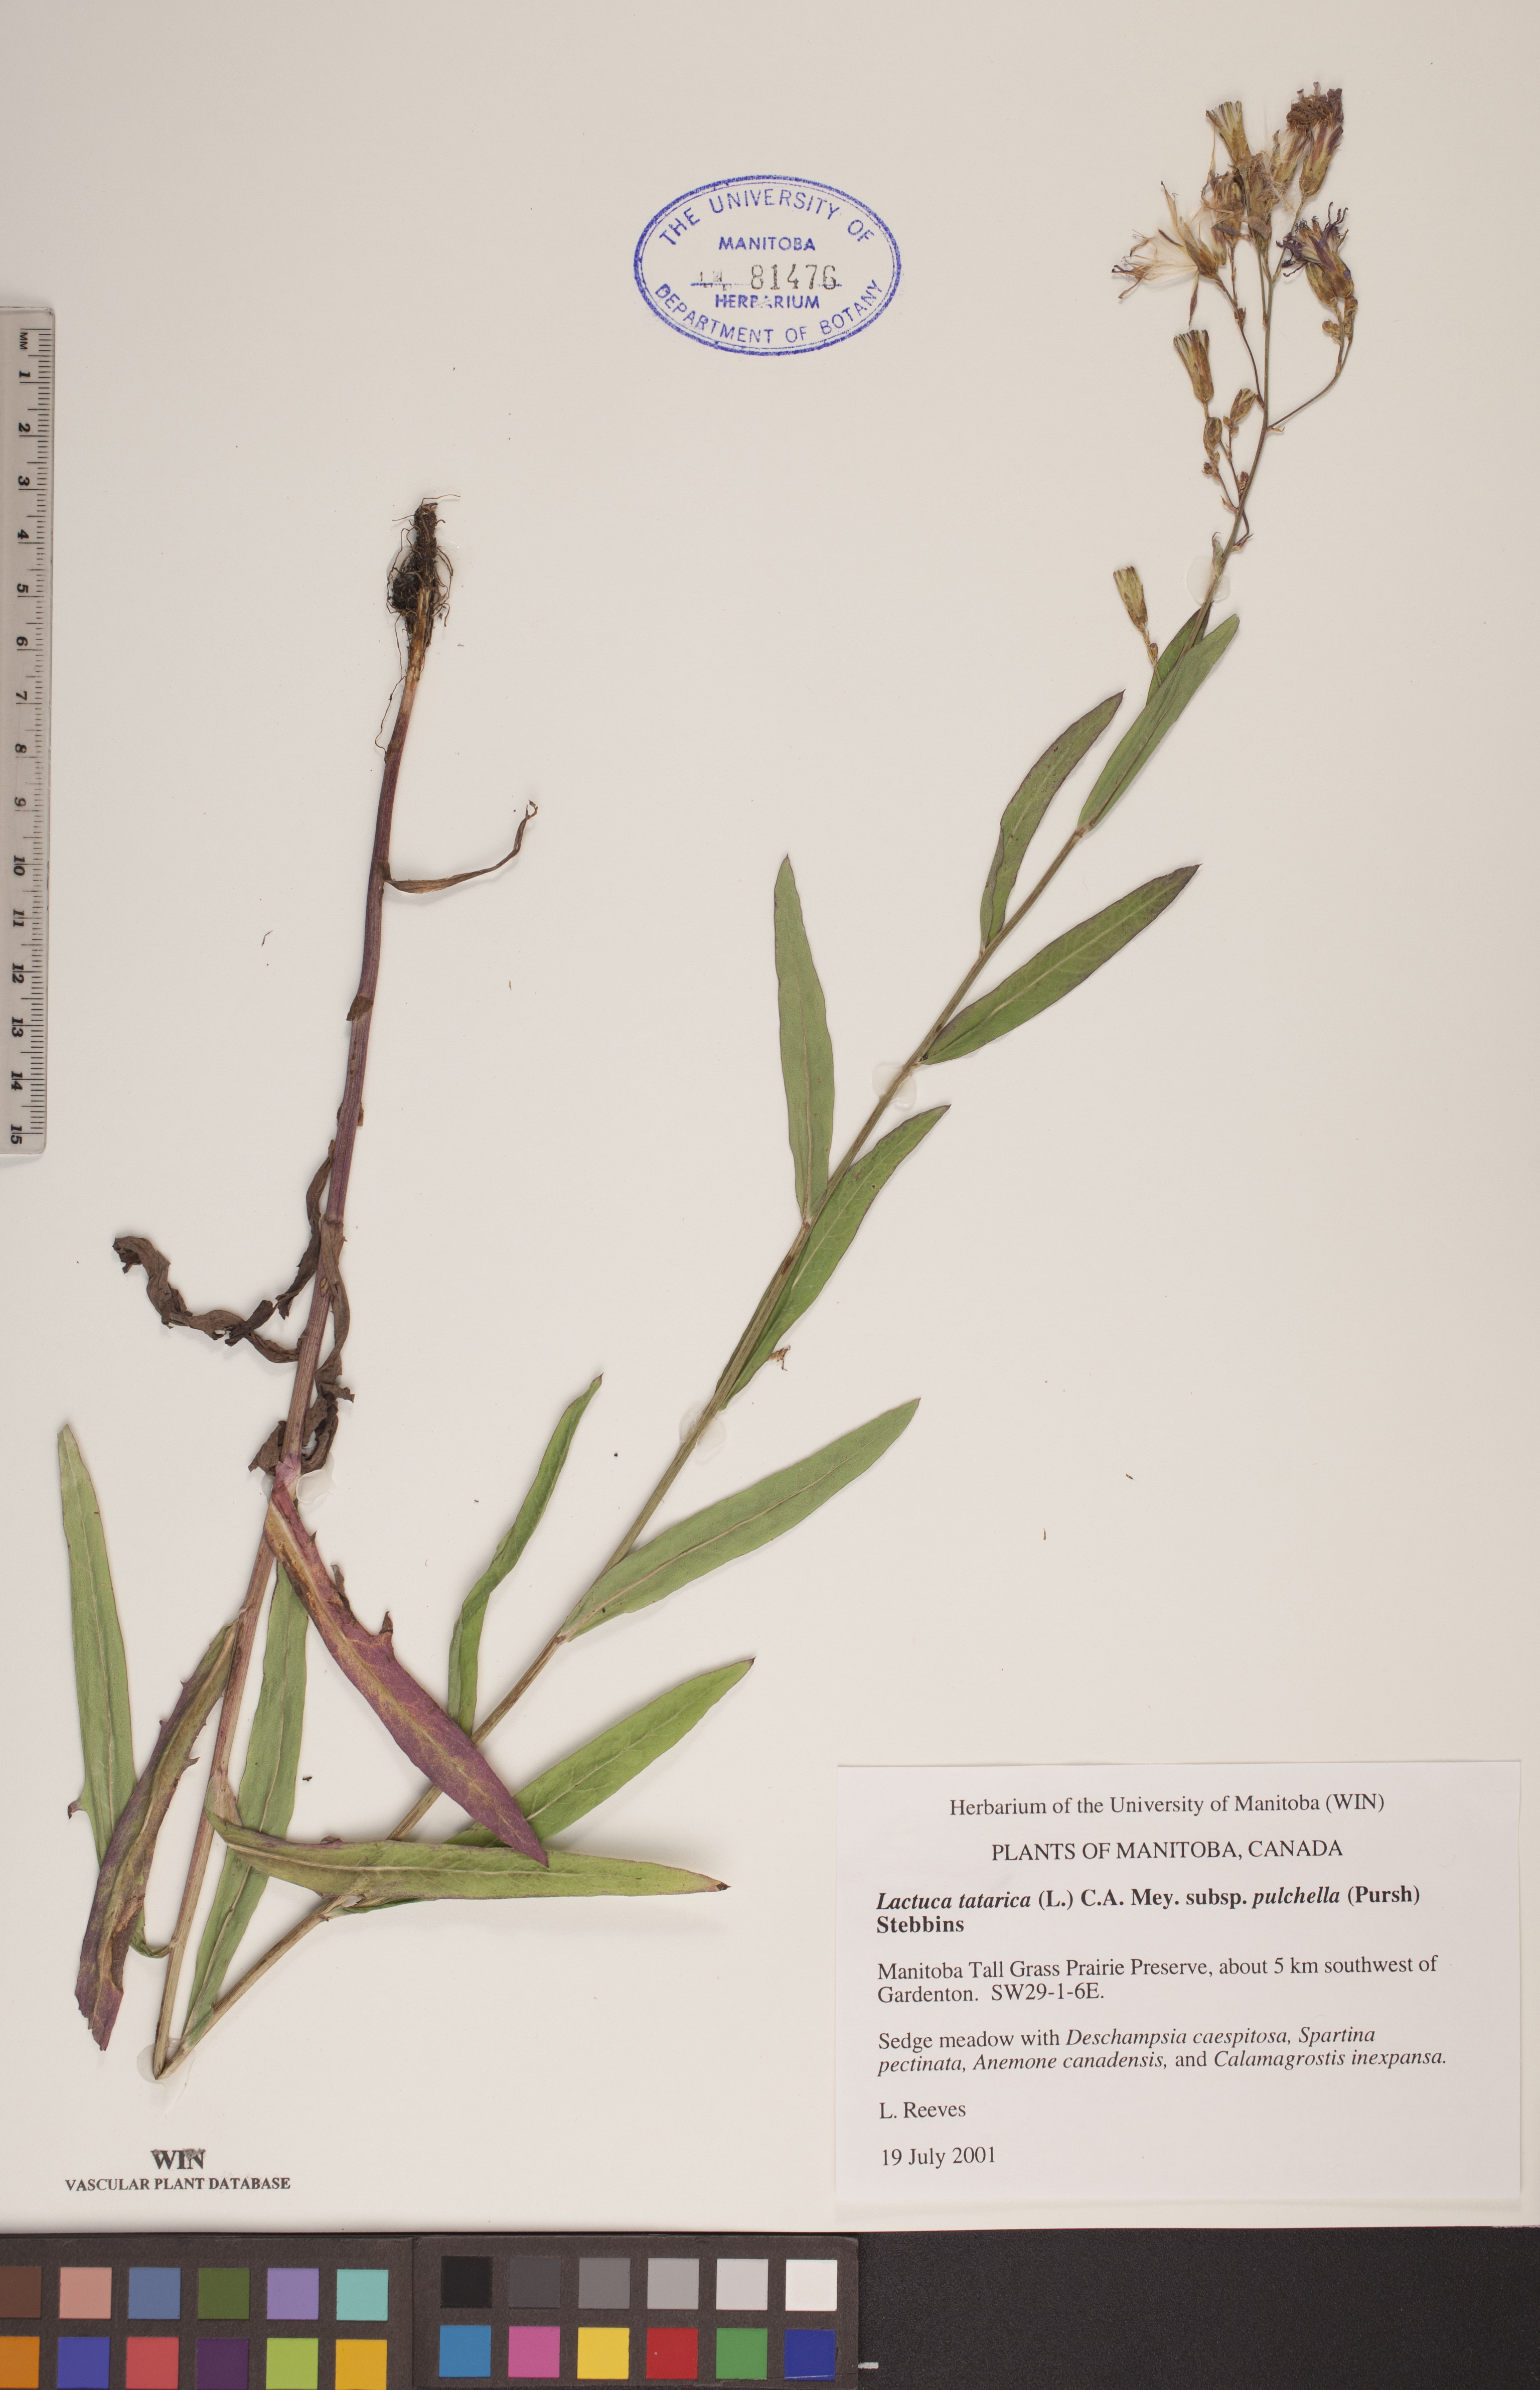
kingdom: Plantae
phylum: Tracheophyta
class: Magnoliopsida
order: Asterales
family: Asteraceae
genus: Lactuca
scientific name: Lactuca tatarica
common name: Blue lettuce
